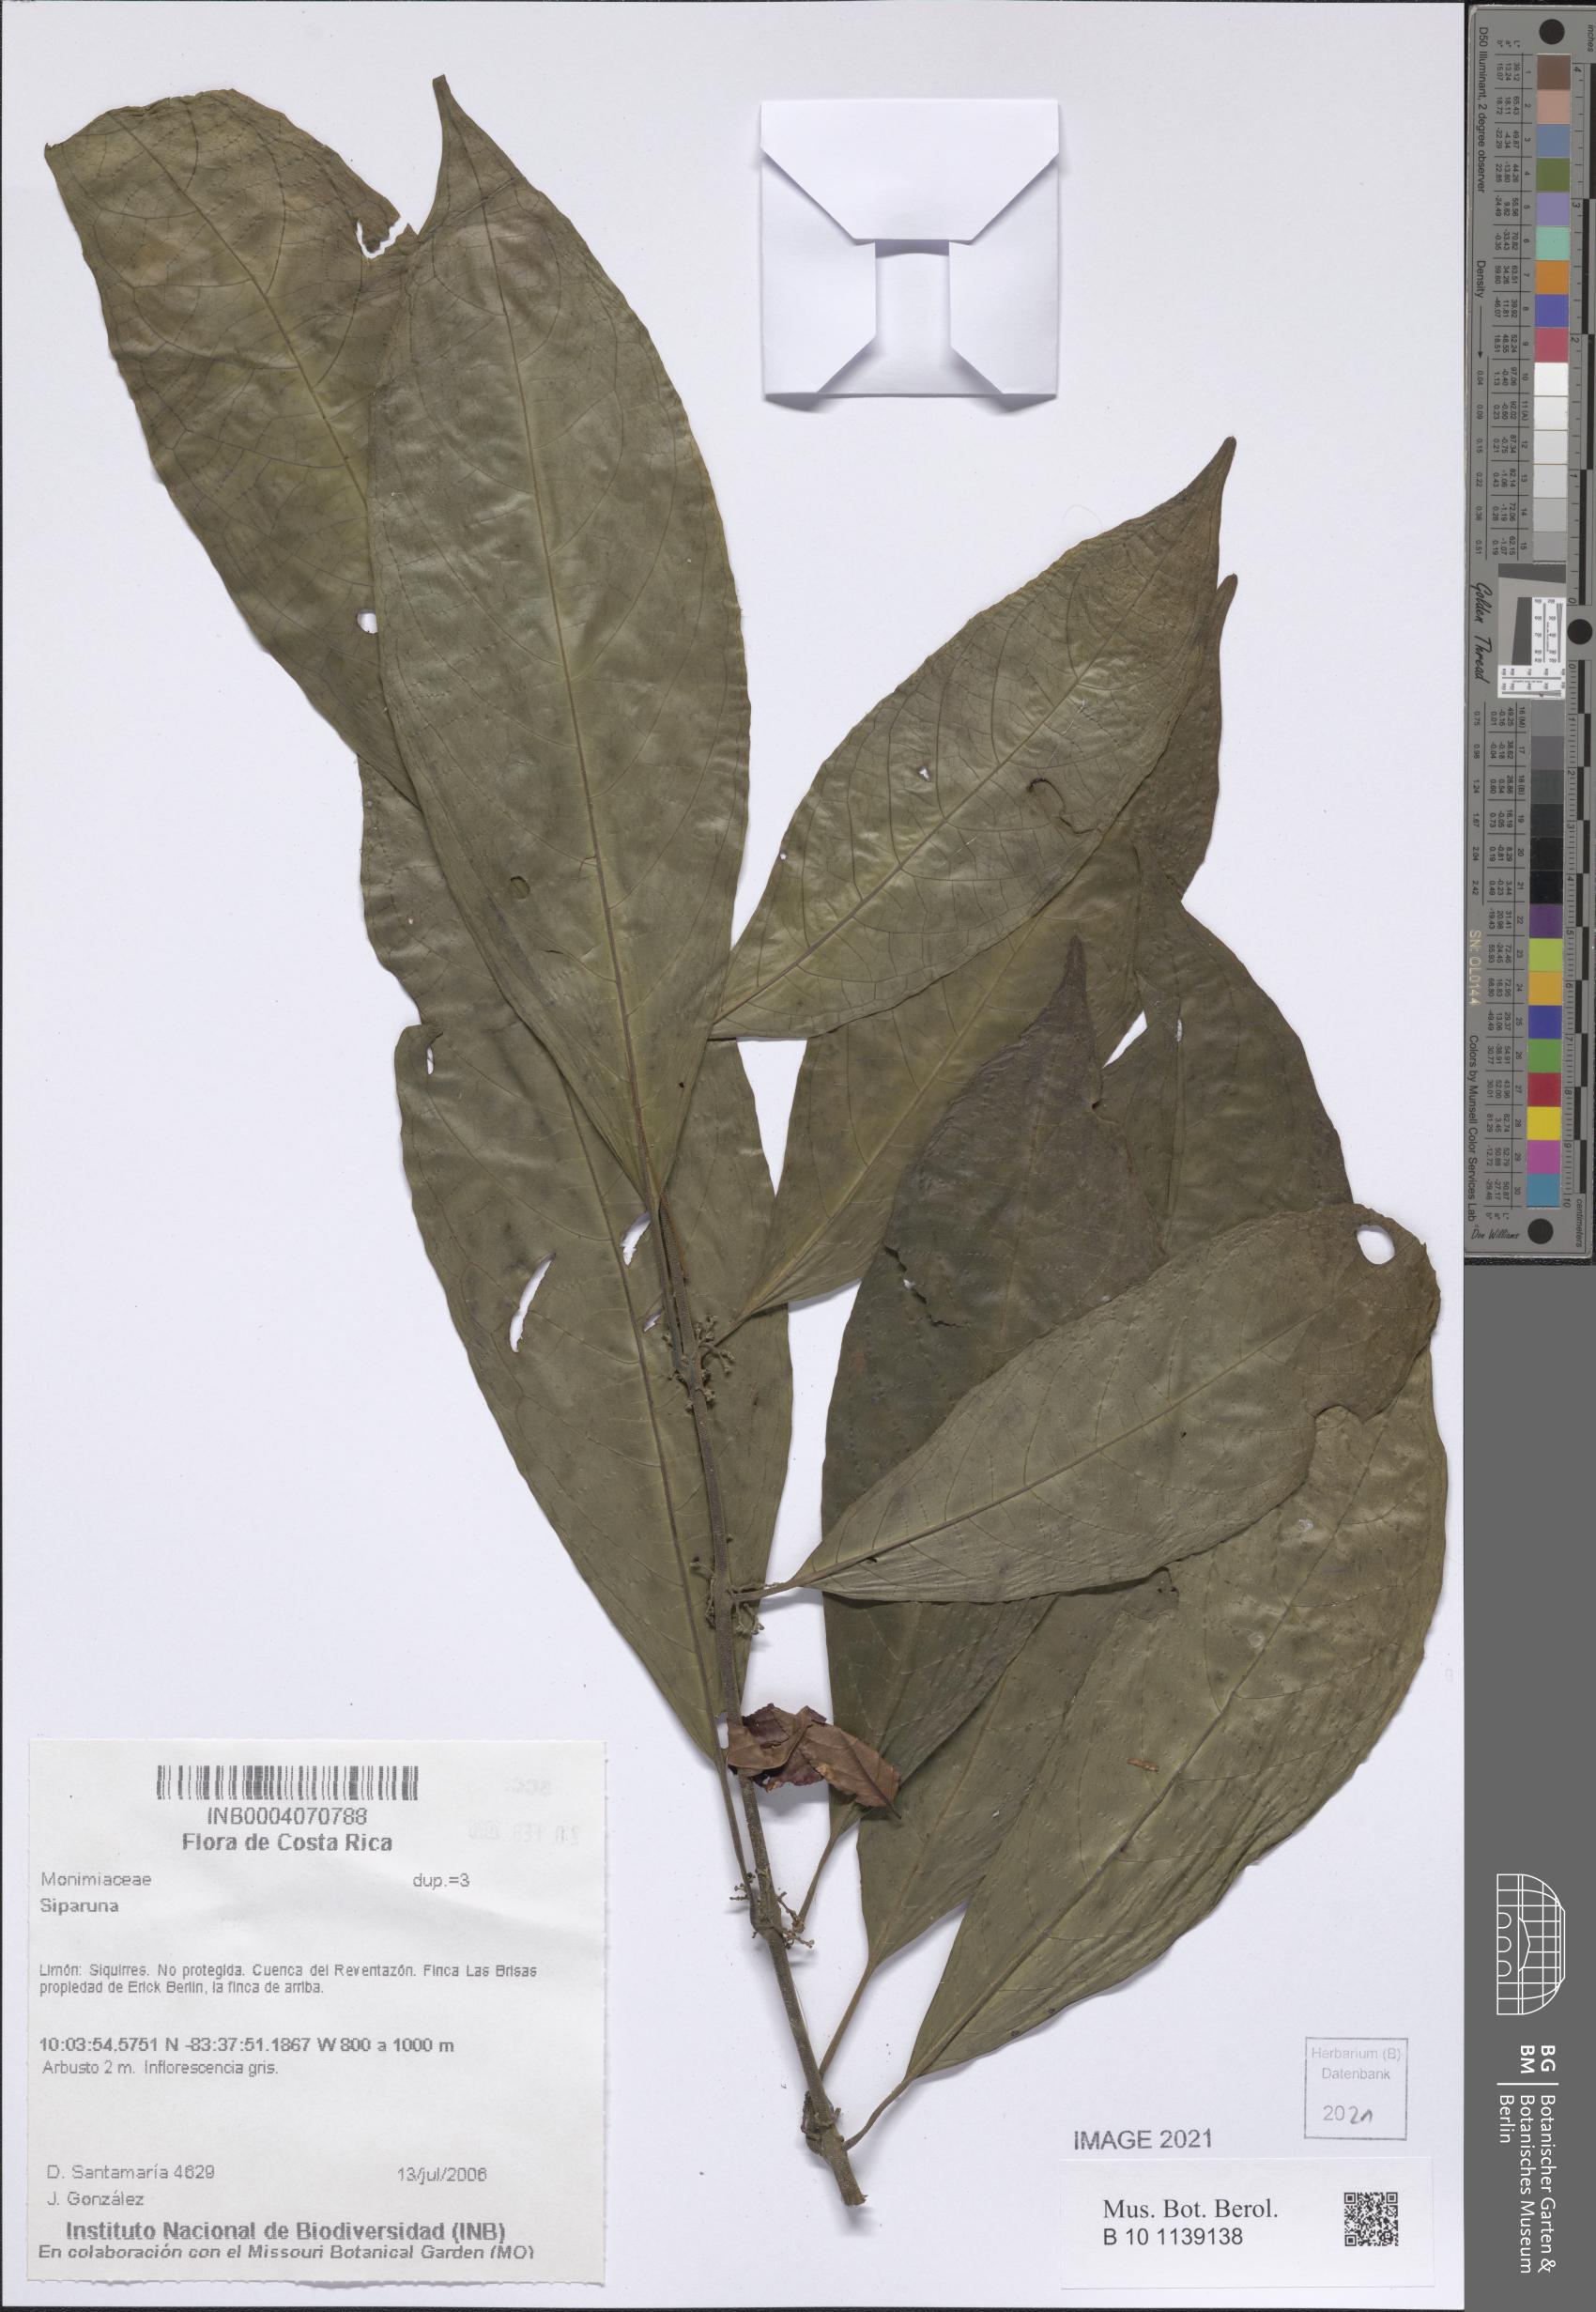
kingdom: Plantae
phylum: Tracheophyta
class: Magnoliopsida
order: Laurales
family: Siparunaceae
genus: Siparuna
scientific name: Siparuna
